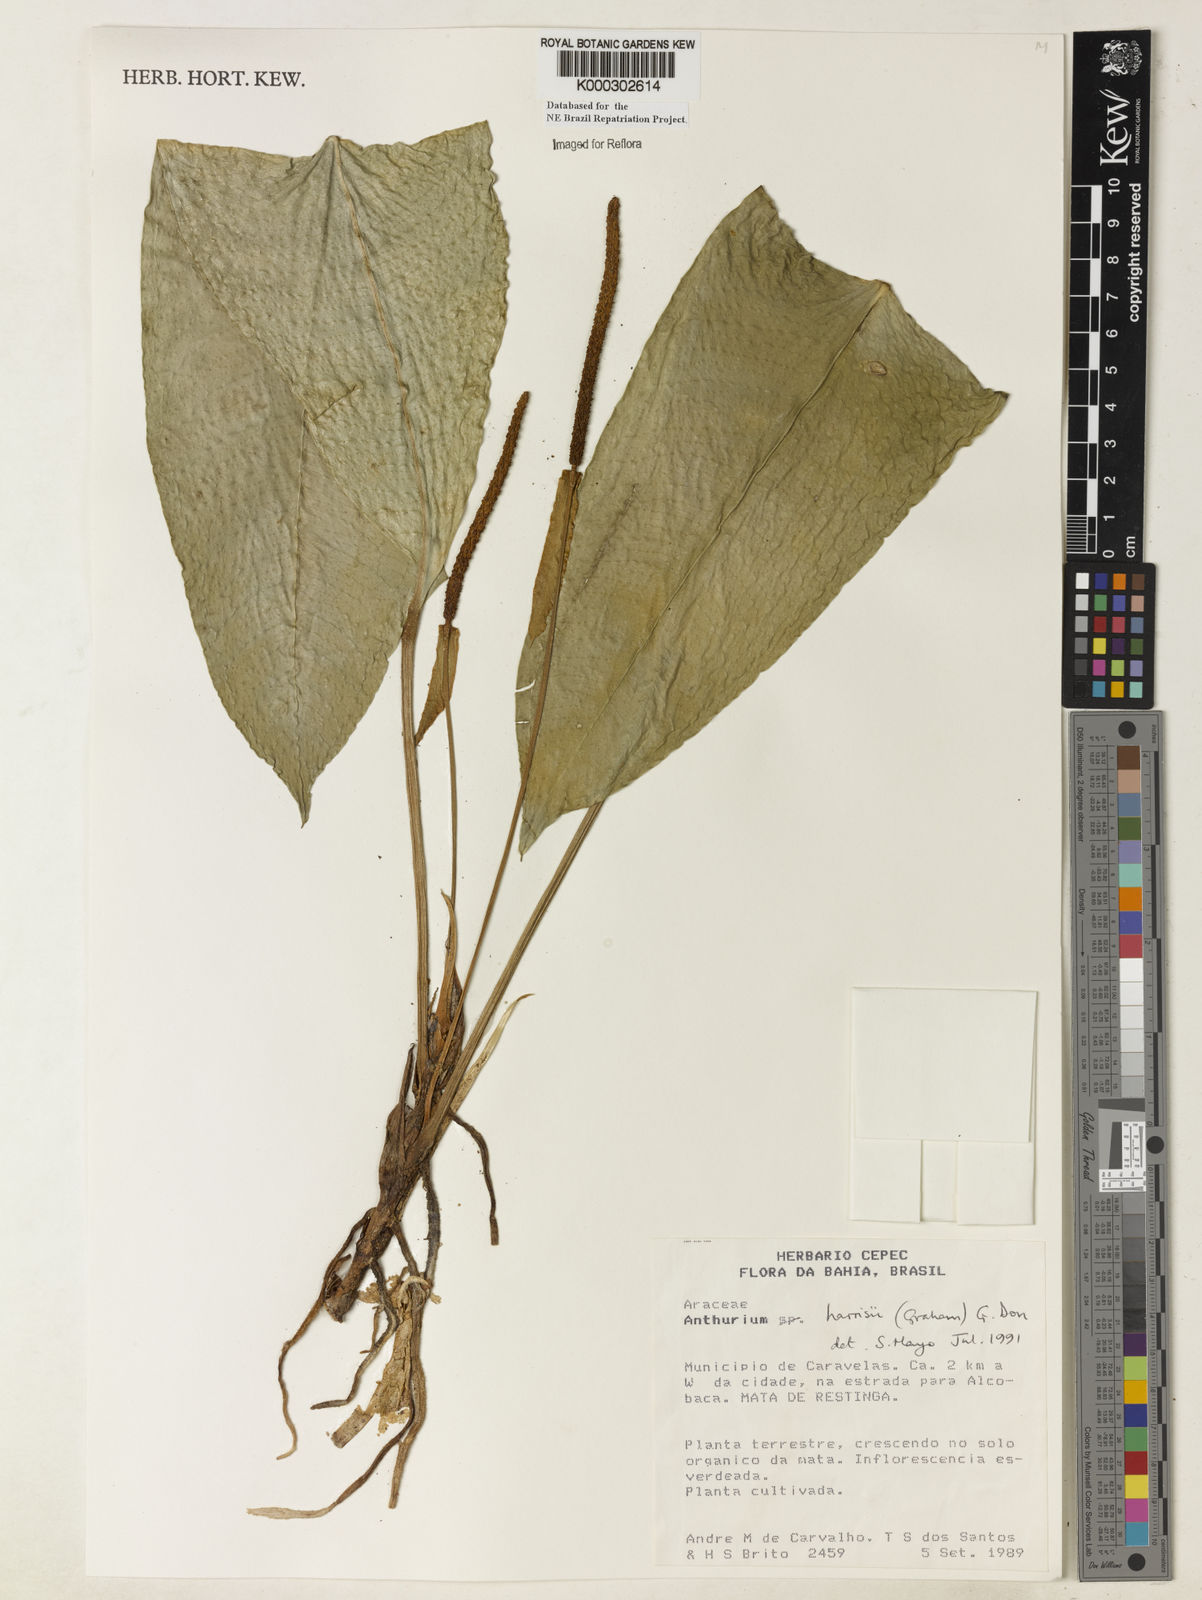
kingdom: Plantae
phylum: Tracheophyta
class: Liliopsida
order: Alismatales
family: Araceae
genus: Anthurium
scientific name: Anthurium harrisii
